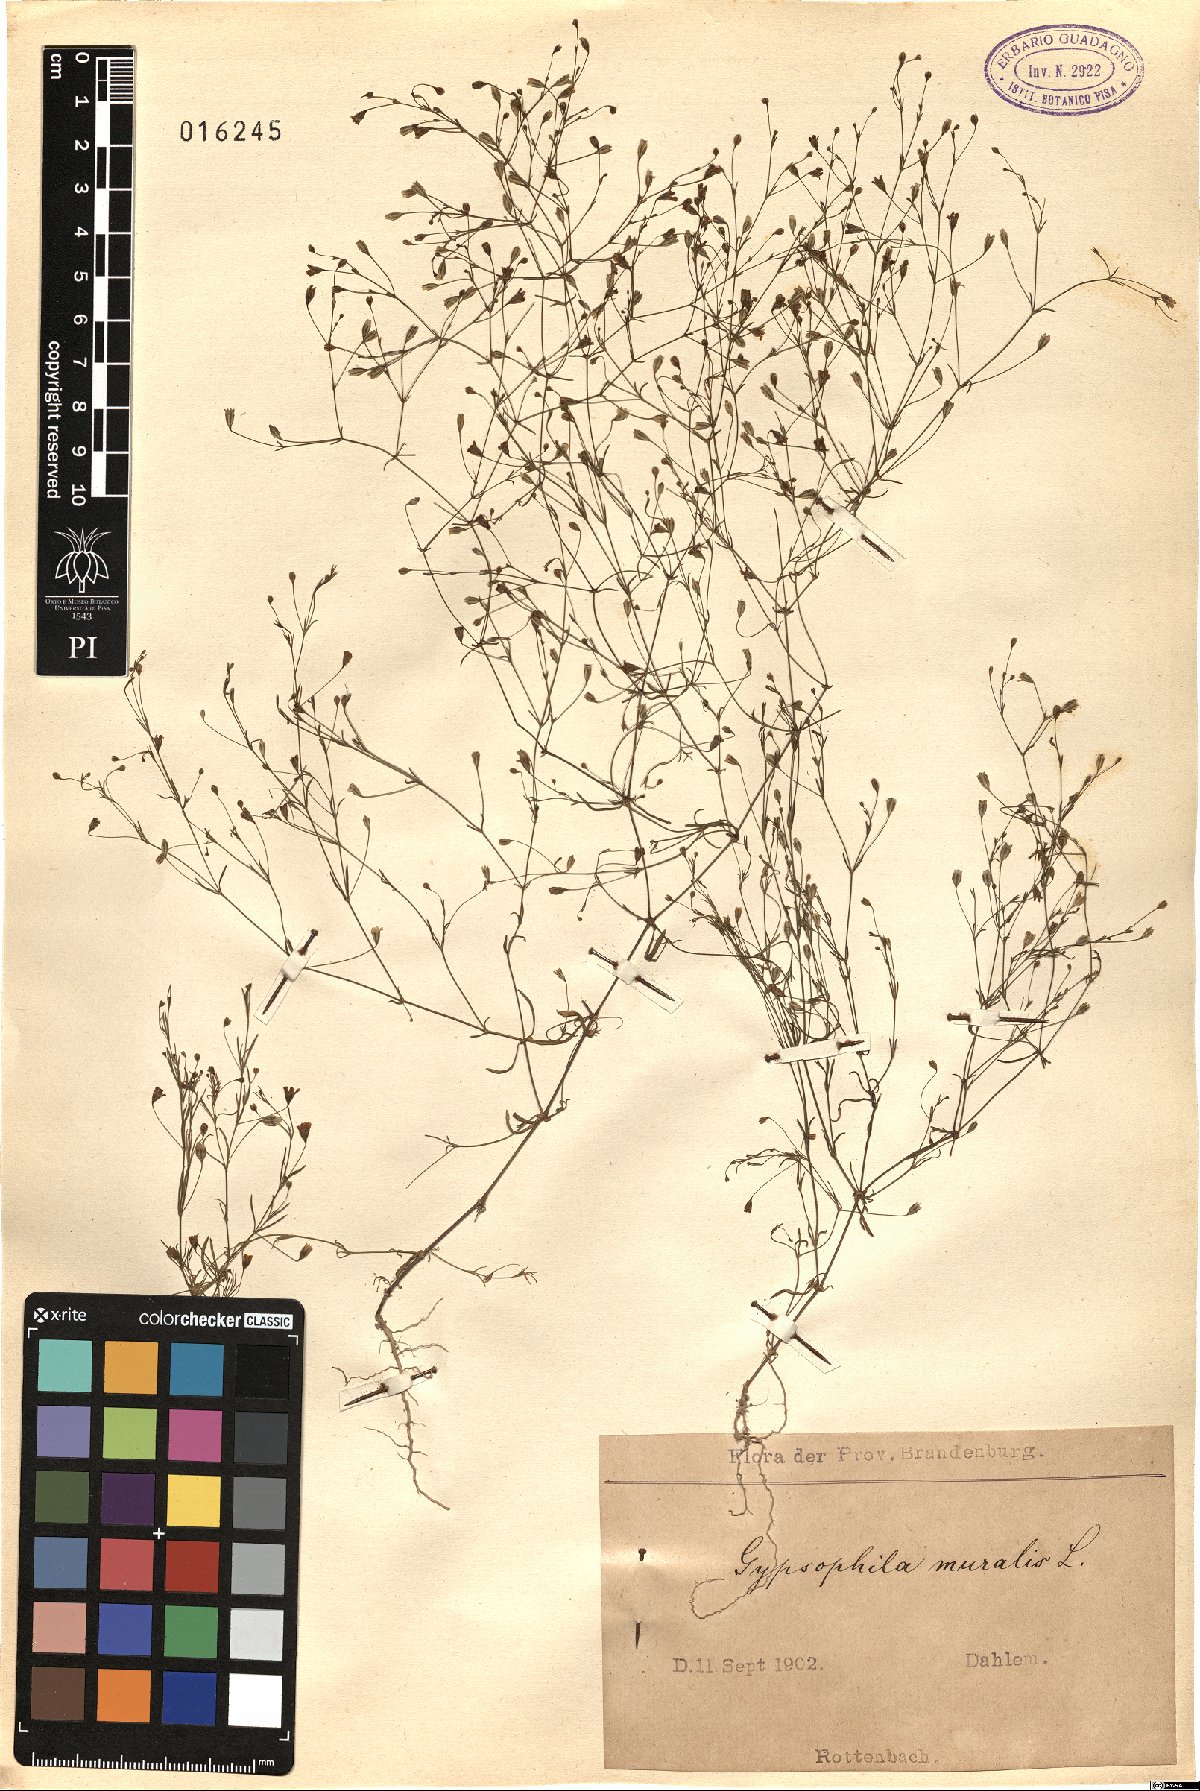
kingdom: Plantae
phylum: Tracheophyta
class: Magnoliopsida
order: Caryophyllales
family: Caryophyllaceae
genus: Psammophiliella
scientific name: Psammophiliella muralis
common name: Cushion baby's-breath
